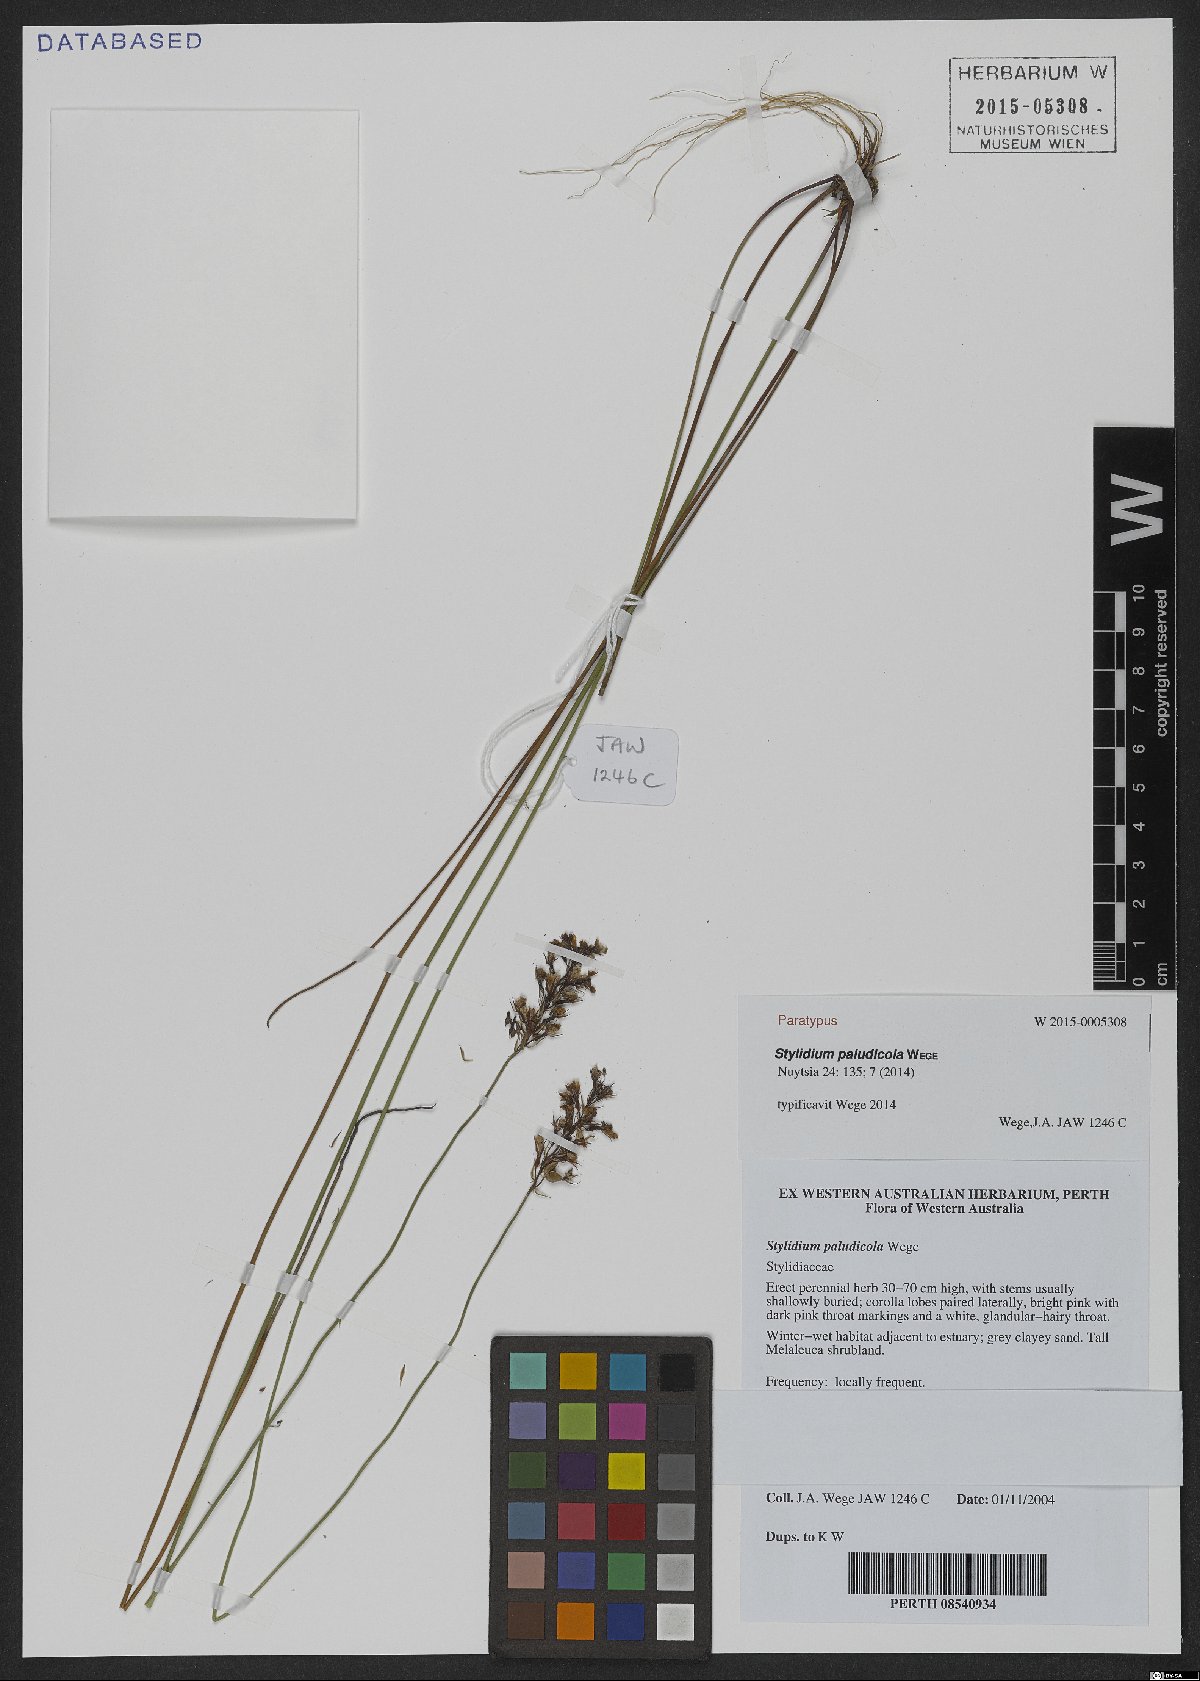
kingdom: Plantae
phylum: Tracheophyta
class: Magnoliopsida
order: Asterales
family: Stylidiaceae
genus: Stylidium
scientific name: Stylidium paludicola
